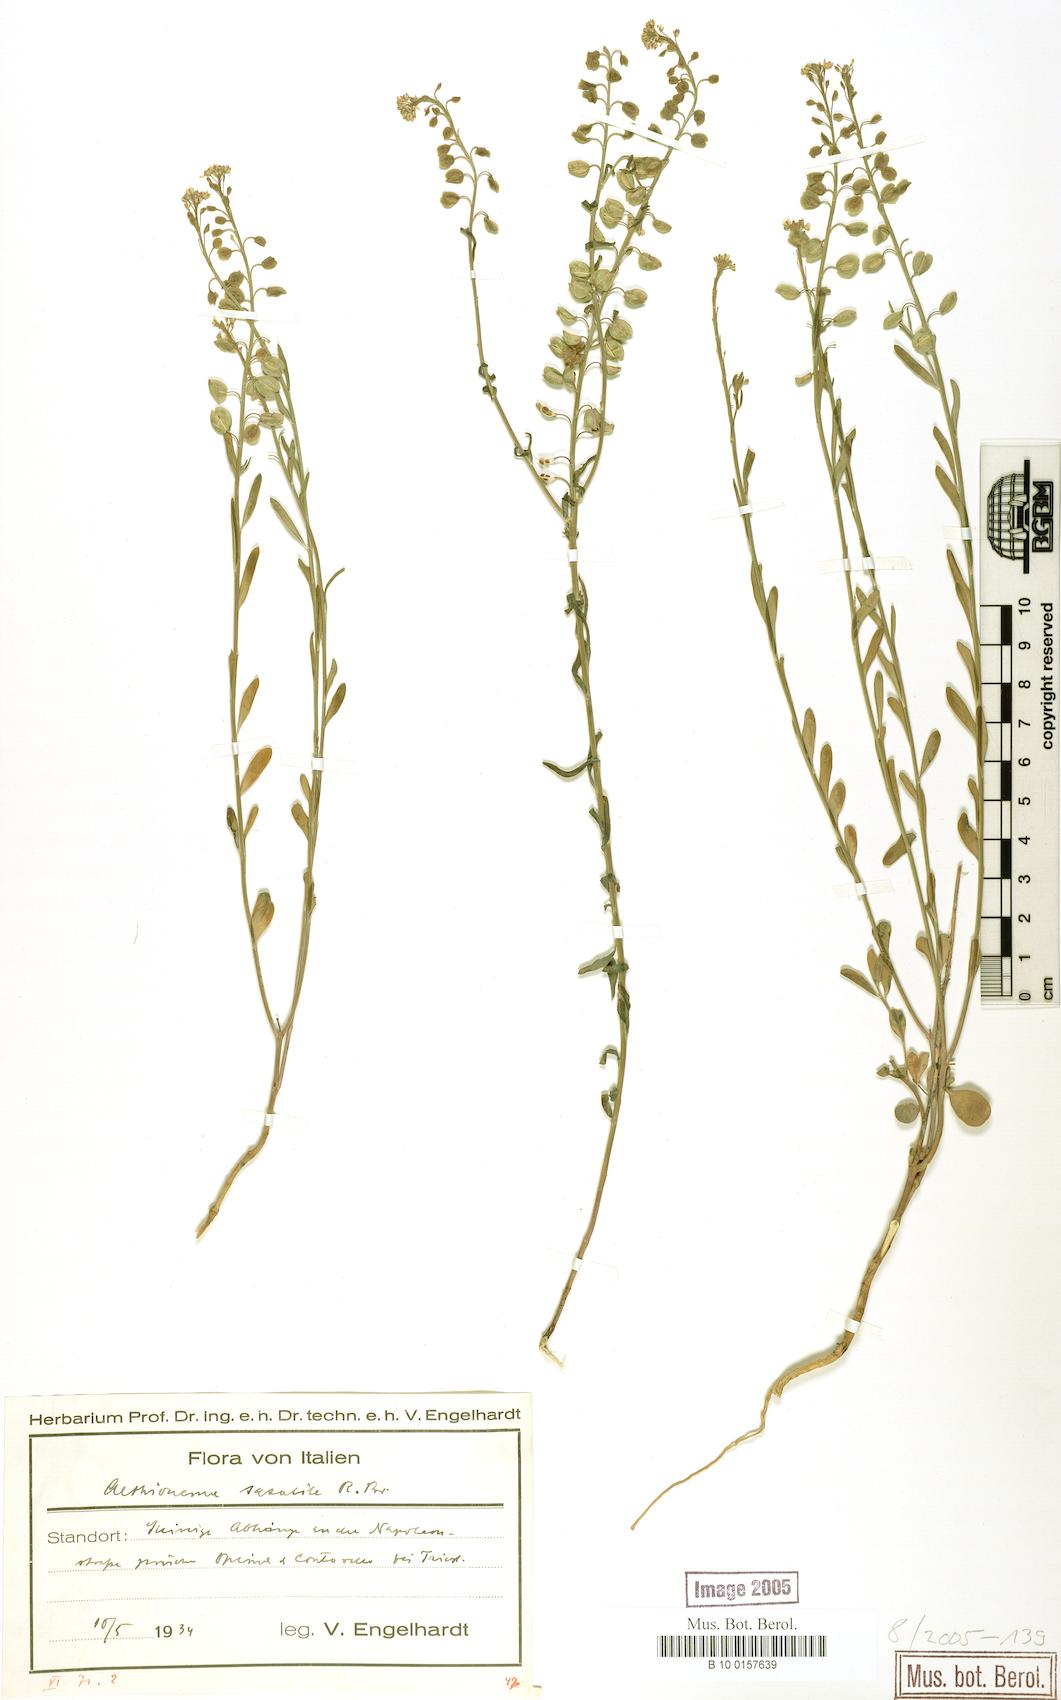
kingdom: Plantae
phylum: Tracheophyta
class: Magnoliopsida
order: Brassicales
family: Brassicaceae
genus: Aethionema
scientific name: Aethionema saxatile
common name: Burnt candytuft
